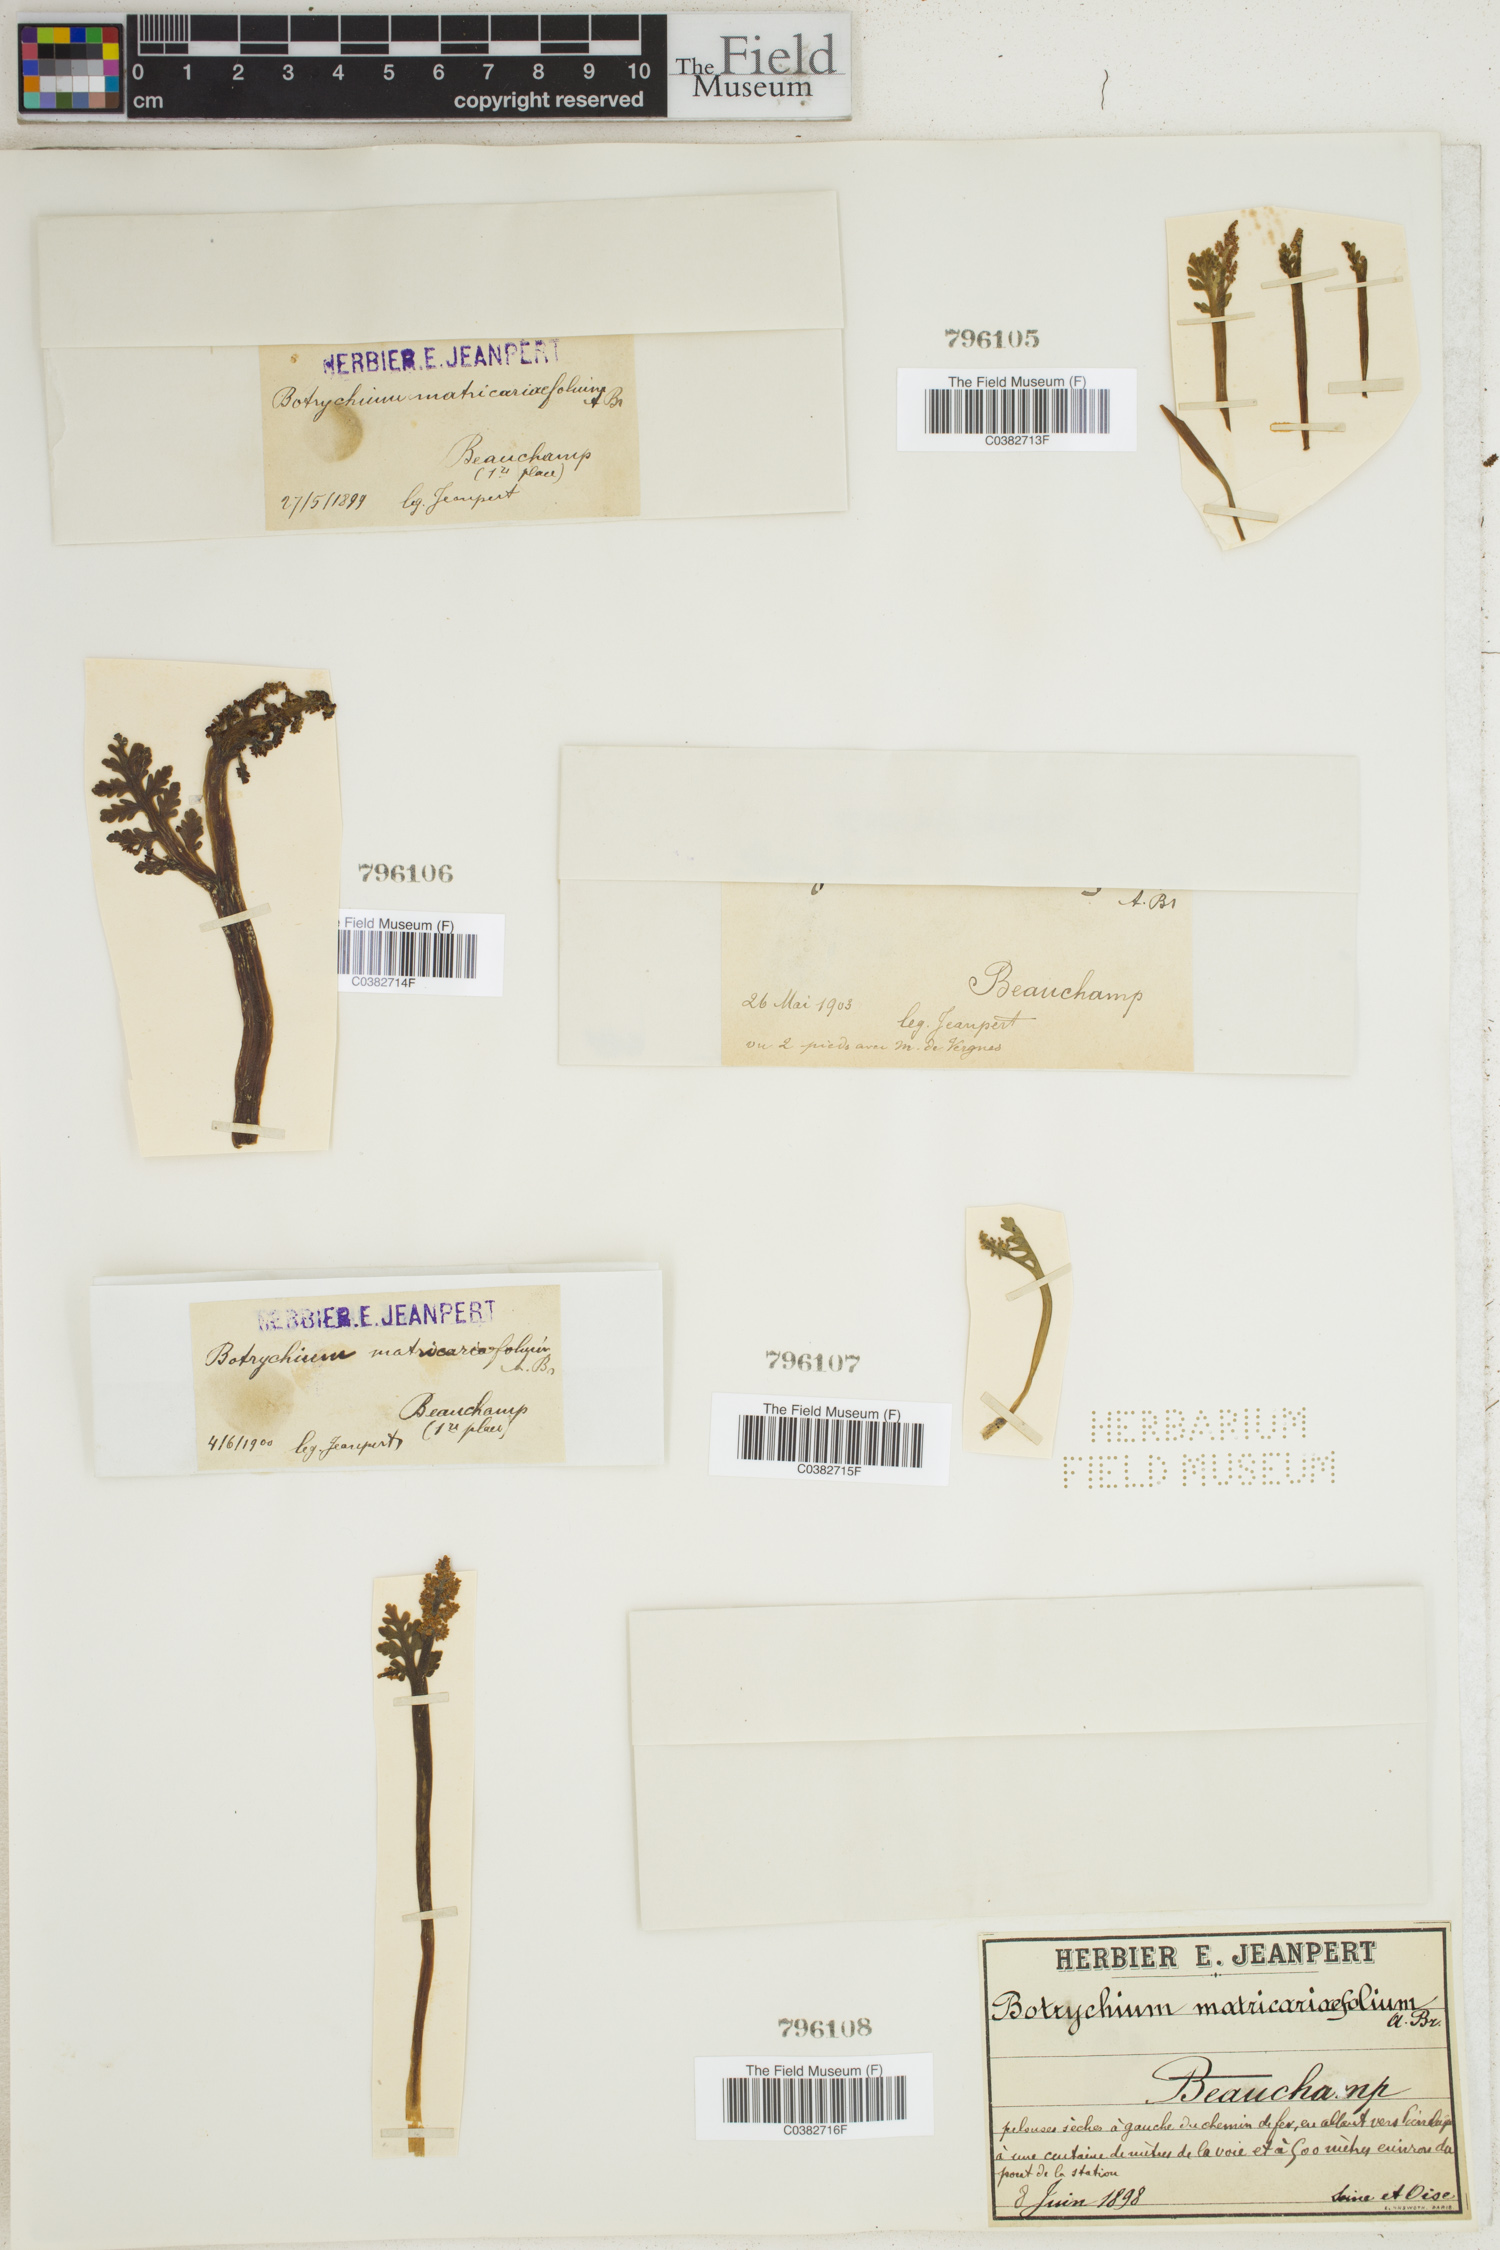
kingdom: Plantae
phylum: Tracheophyta
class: Polypodiopsida
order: Ophioglossales
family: Ophioglossaceae
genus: Botrychium
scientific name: Botrychium matricariifolium
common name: Branched moonwort
